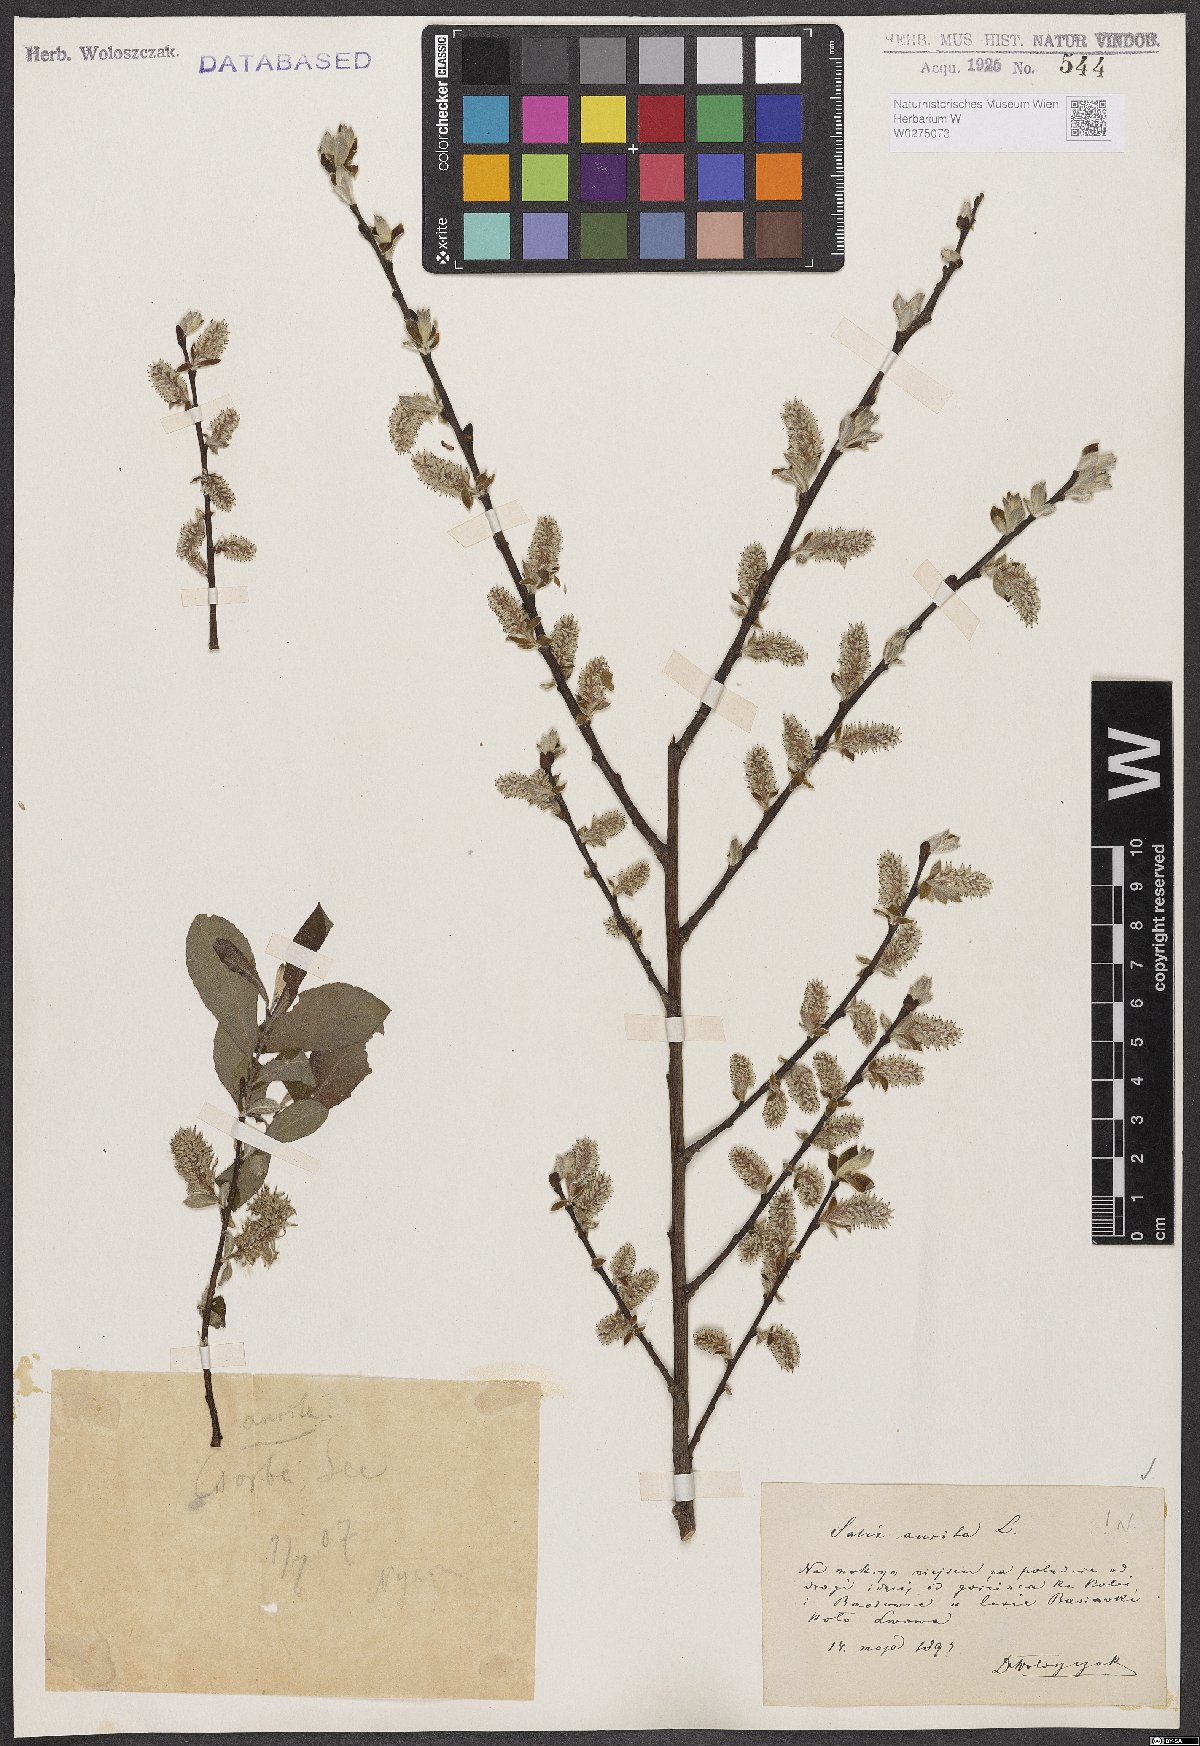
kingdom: Plantae
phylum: Tracheophyta
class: Magnoliopsida
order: Malpighiales
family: Salicaceae
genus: Salix
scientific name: Salix aurita
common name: Eared willow
